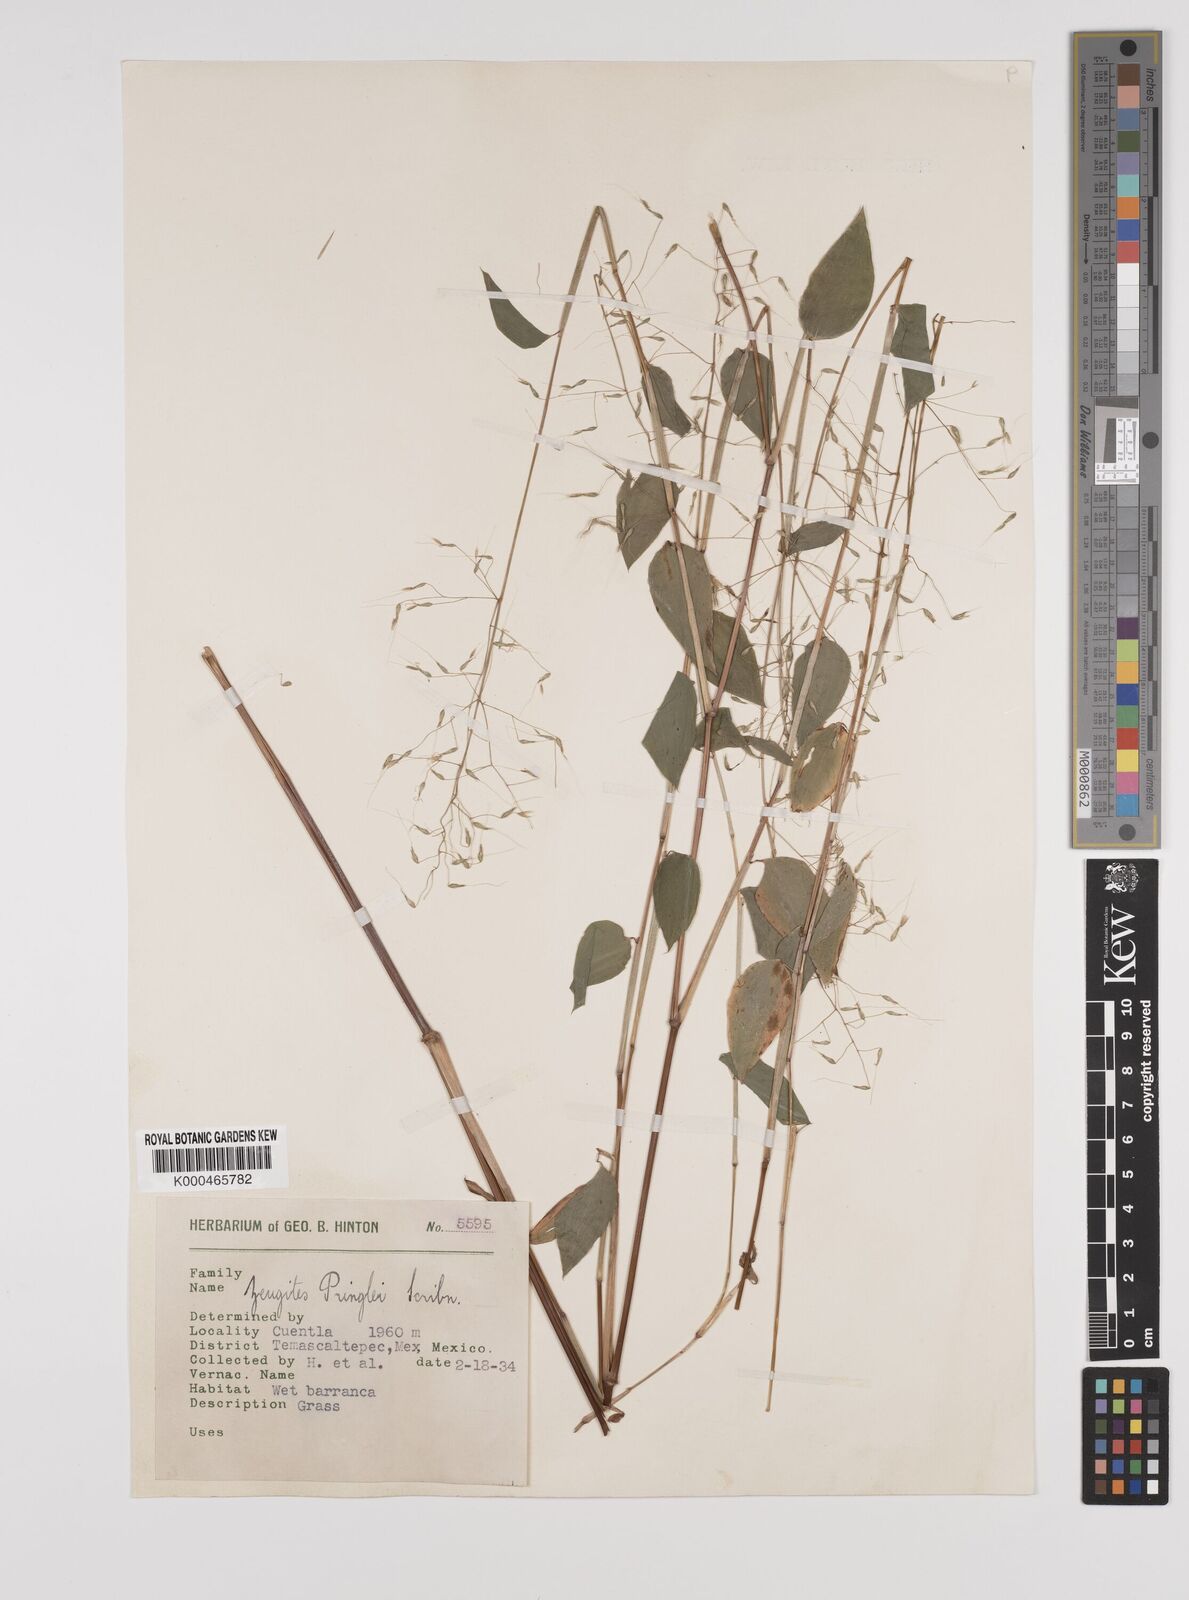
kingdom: Plantae
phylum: Tracheophyta
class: Liliopsida
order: Poales
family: Poaceae
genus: Zeugites
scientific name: Zeugites americanus
